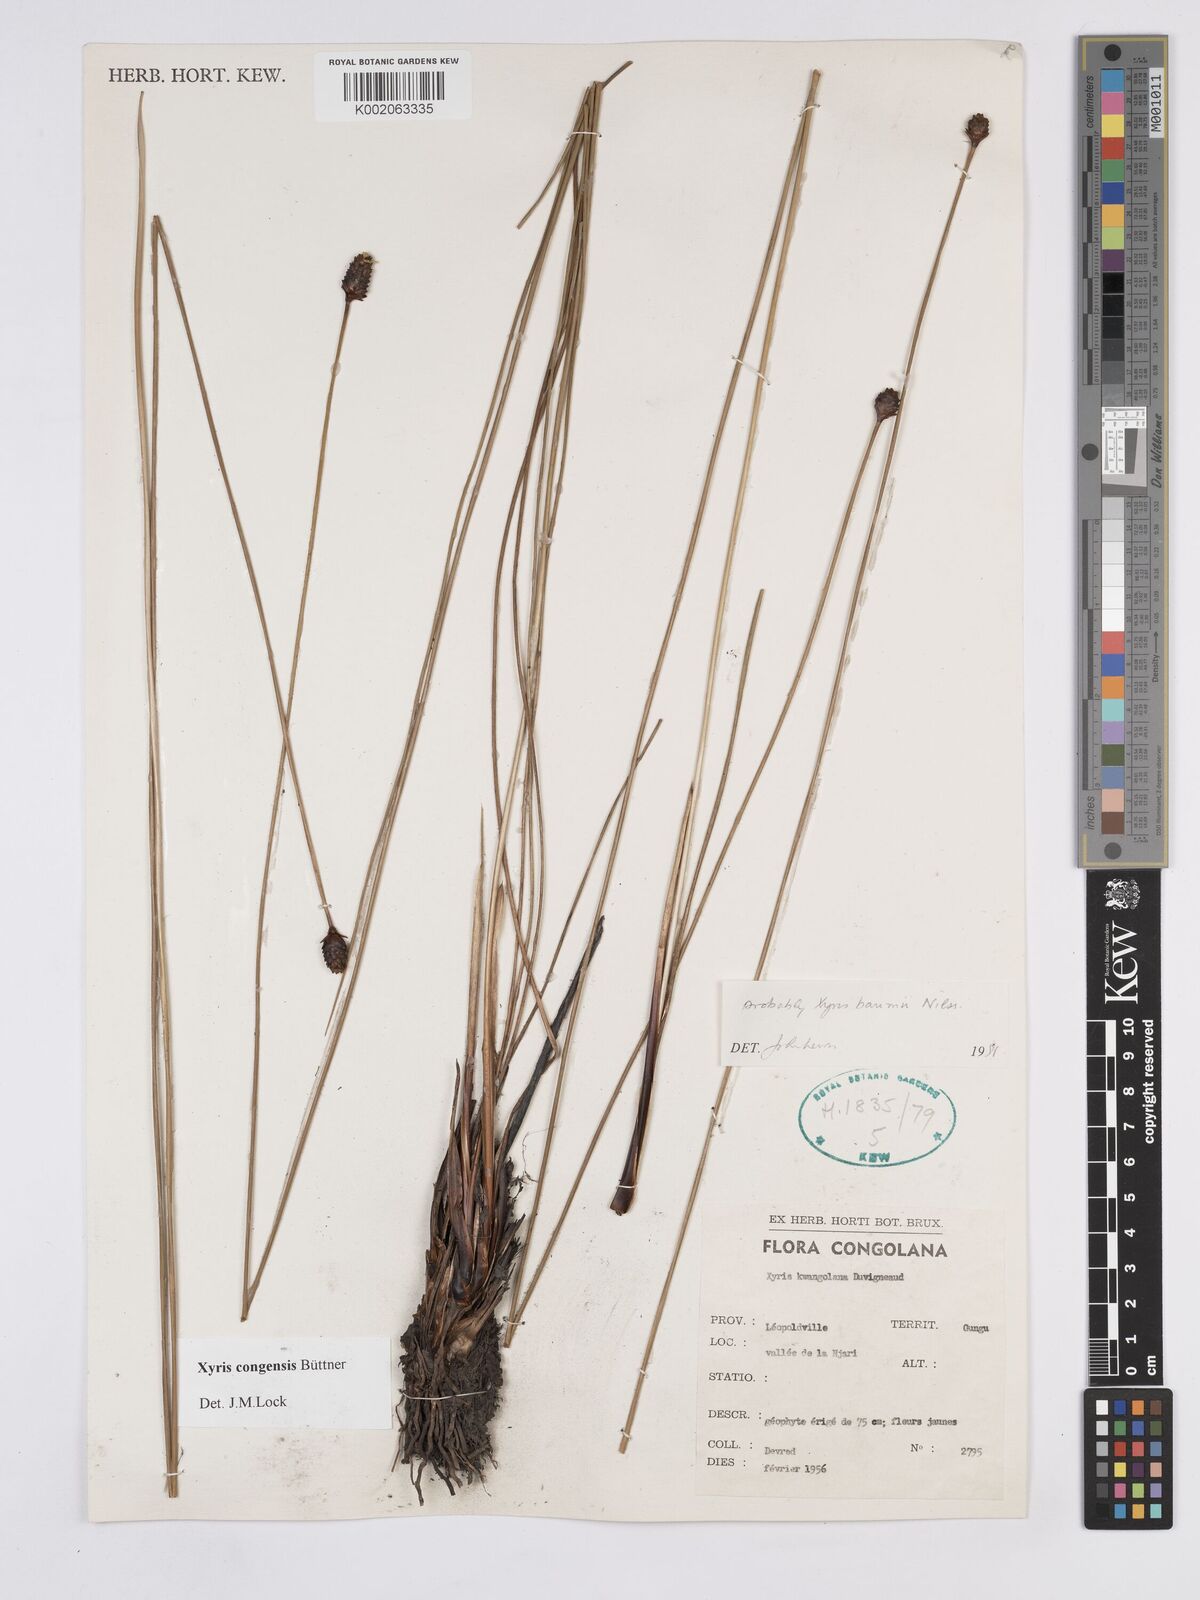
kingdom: Plantae
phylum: Tracheophyta
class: Liliopsida
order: Poales
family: Xyridaceae
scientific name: Xyridaceae
